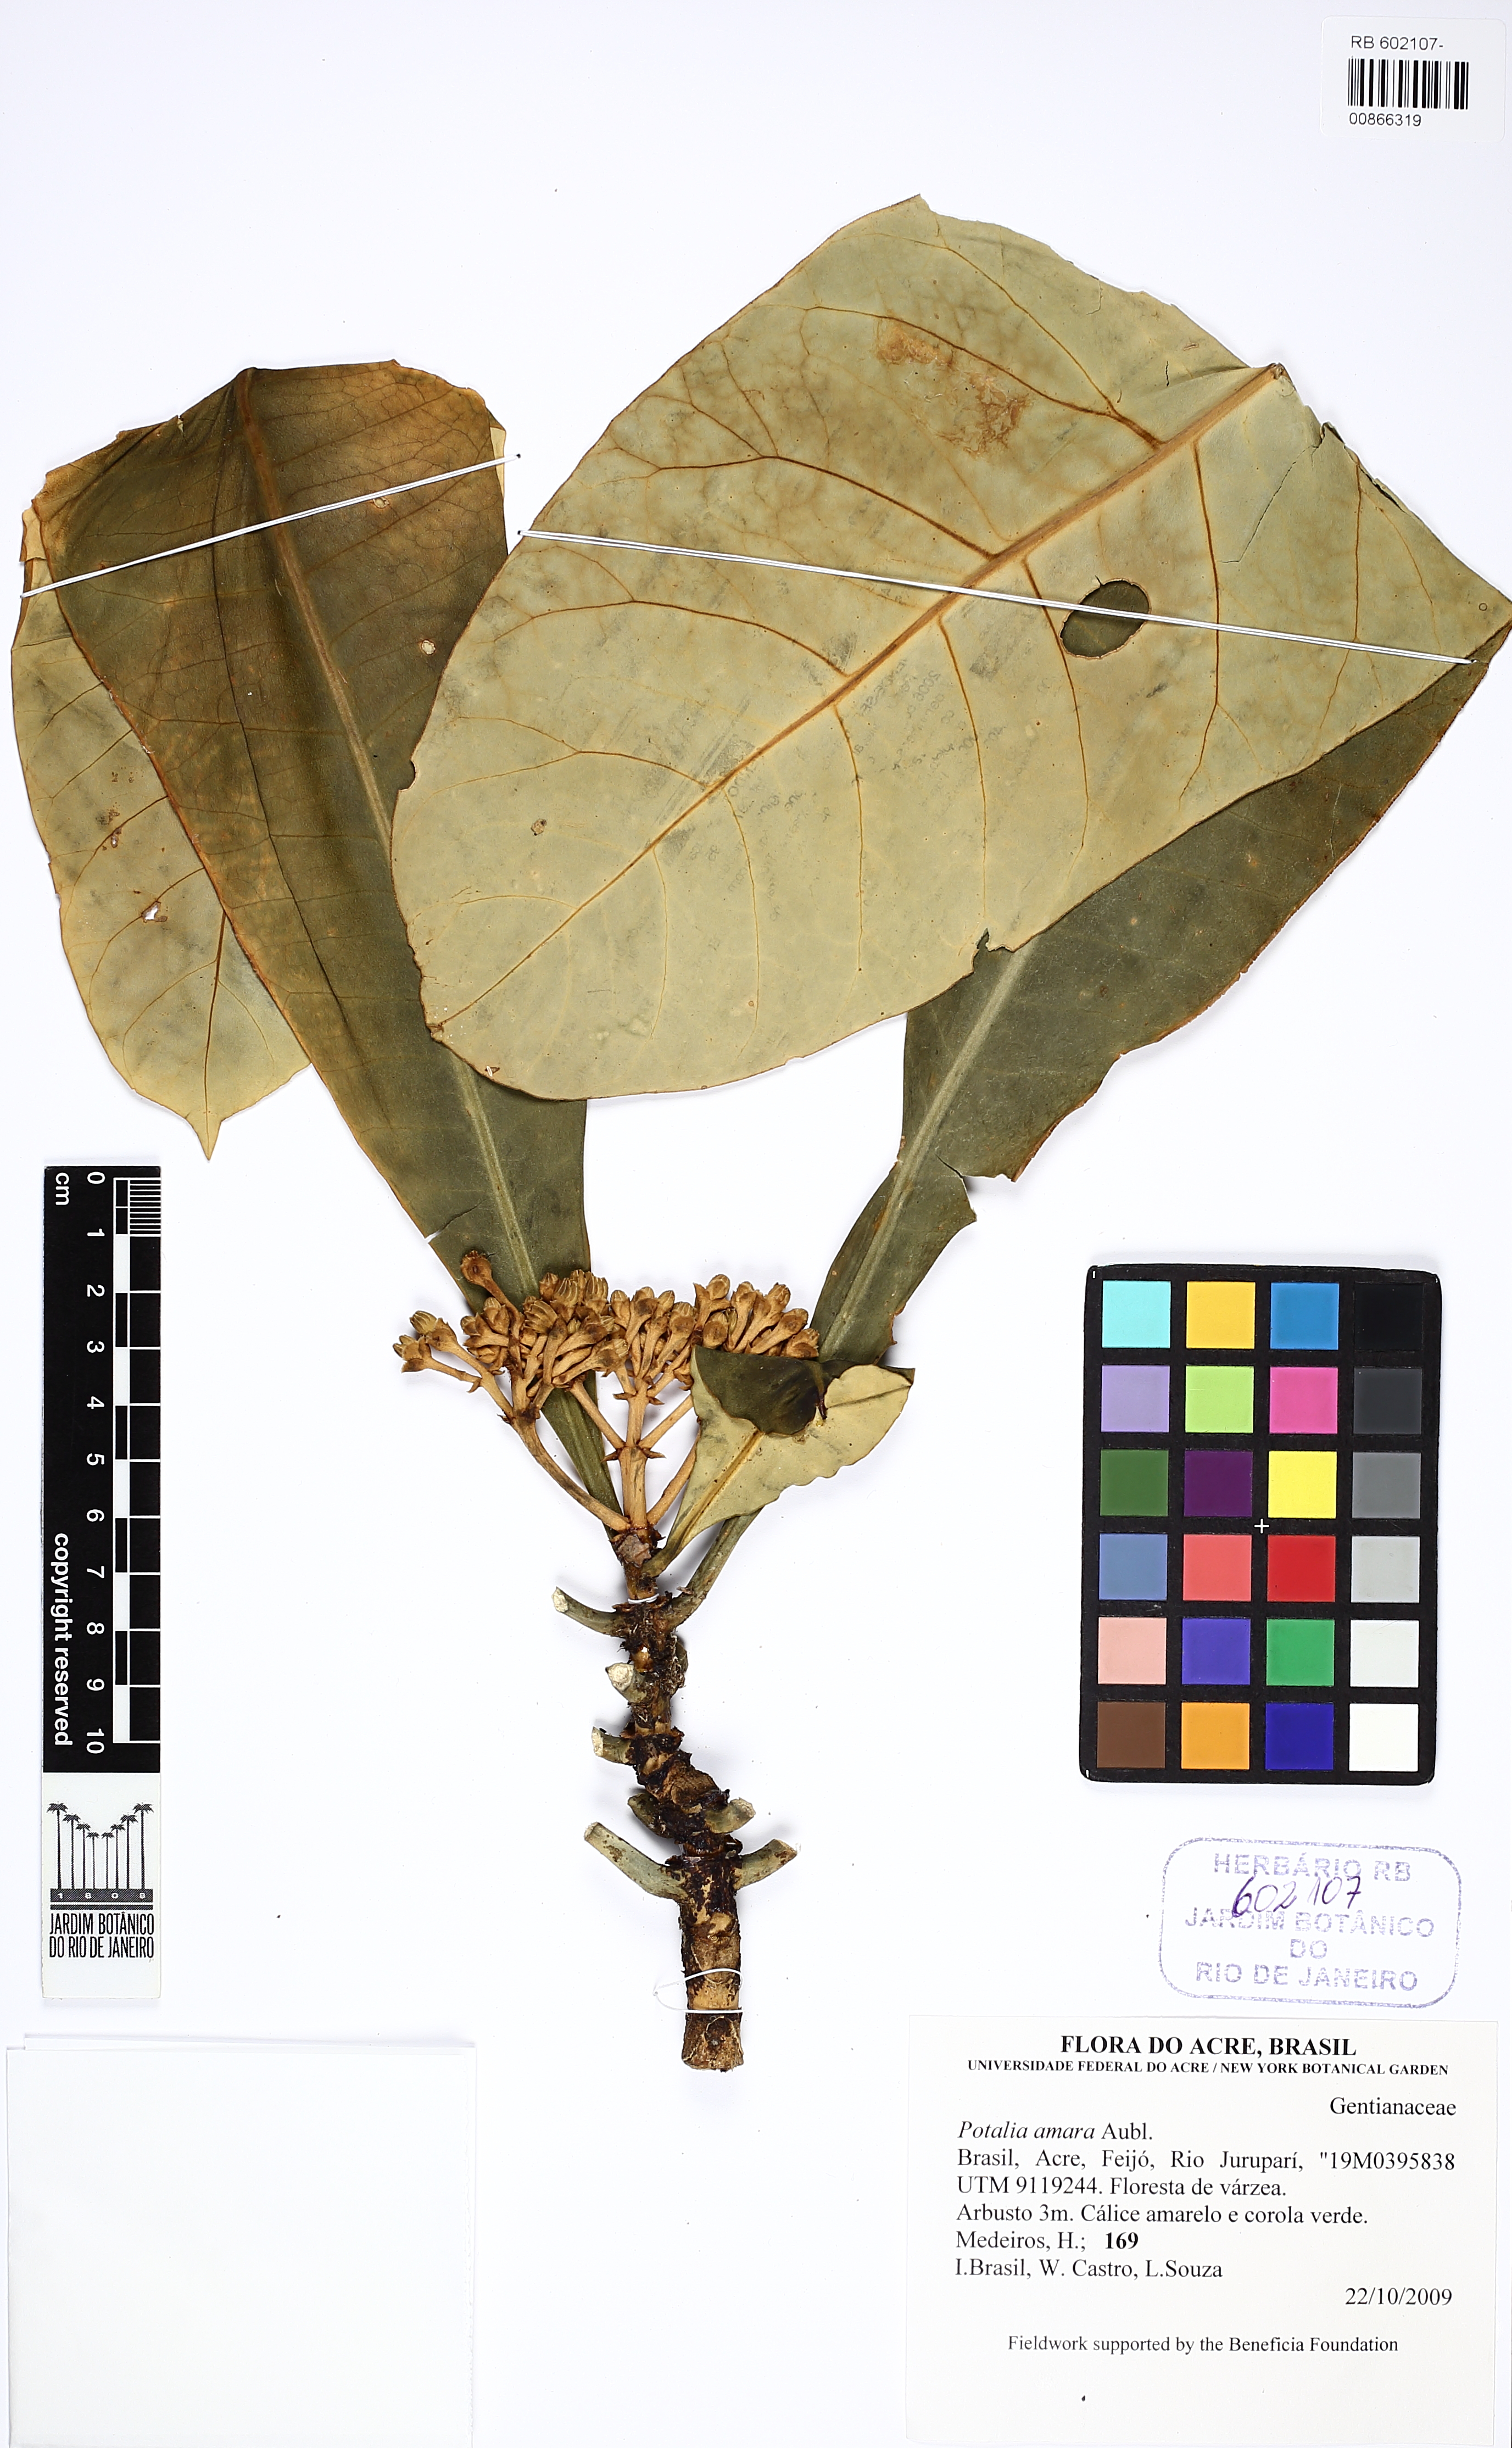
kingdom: Plantae
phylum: Tracheophyta
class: Magnoliopsida
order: Gentianales
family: Gentianaceae
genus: Potalia
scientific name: Potalia amara
